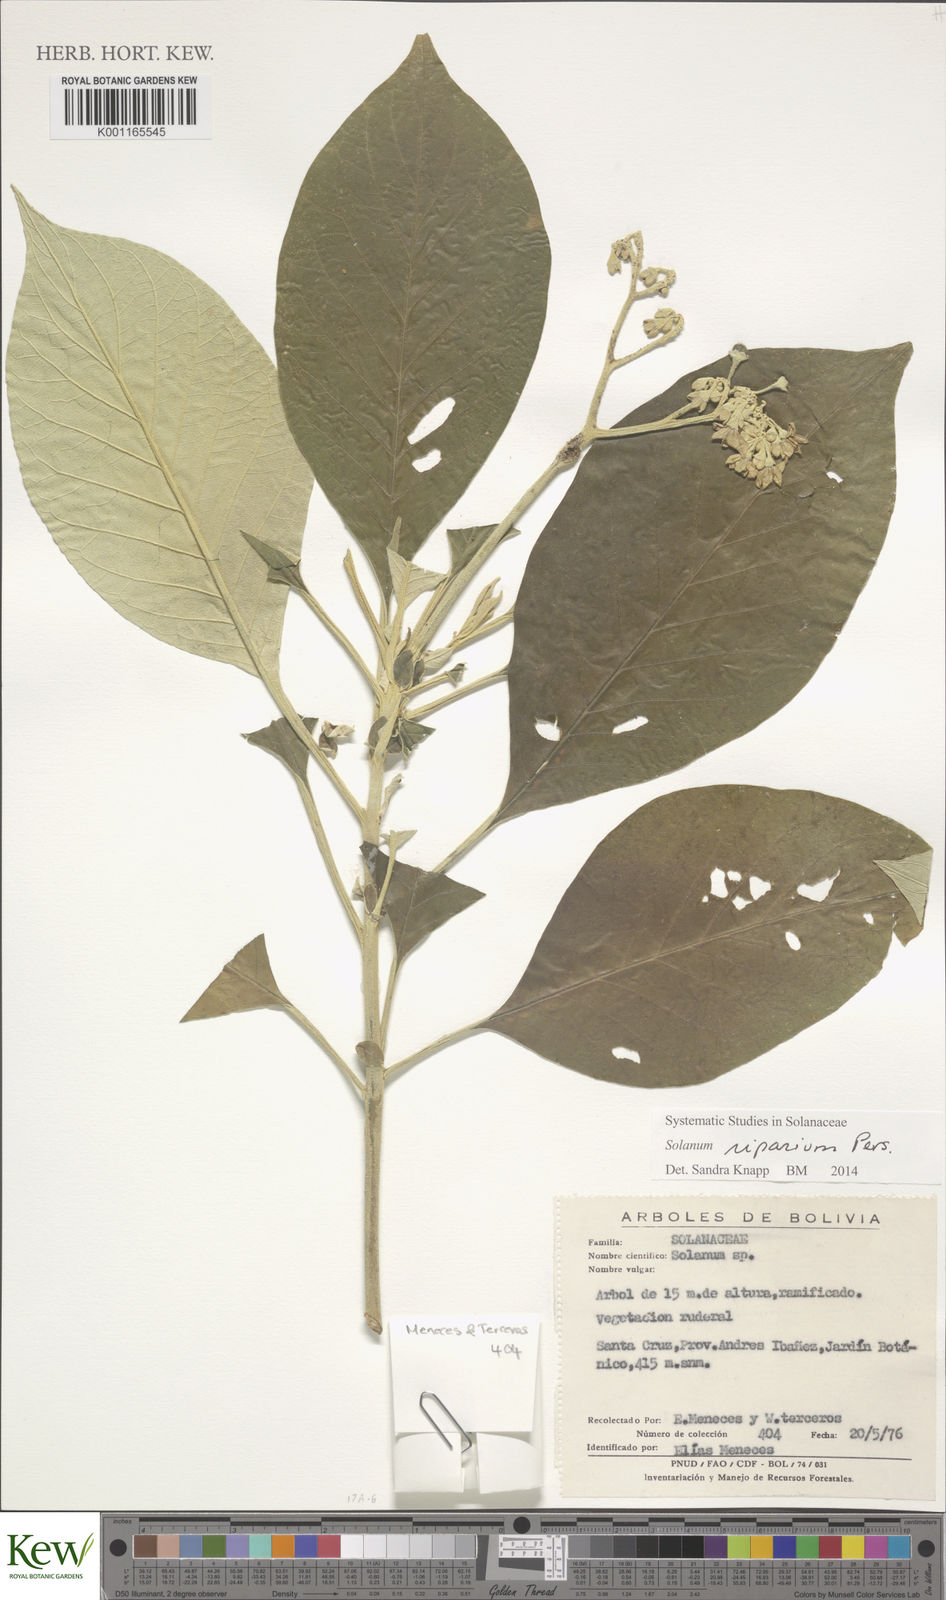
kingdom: Plantae
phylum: Tracheophyta
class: Magnoliopsida
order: Solanales
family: Solanaceae
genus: Solanum
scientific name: Solanum riparium
